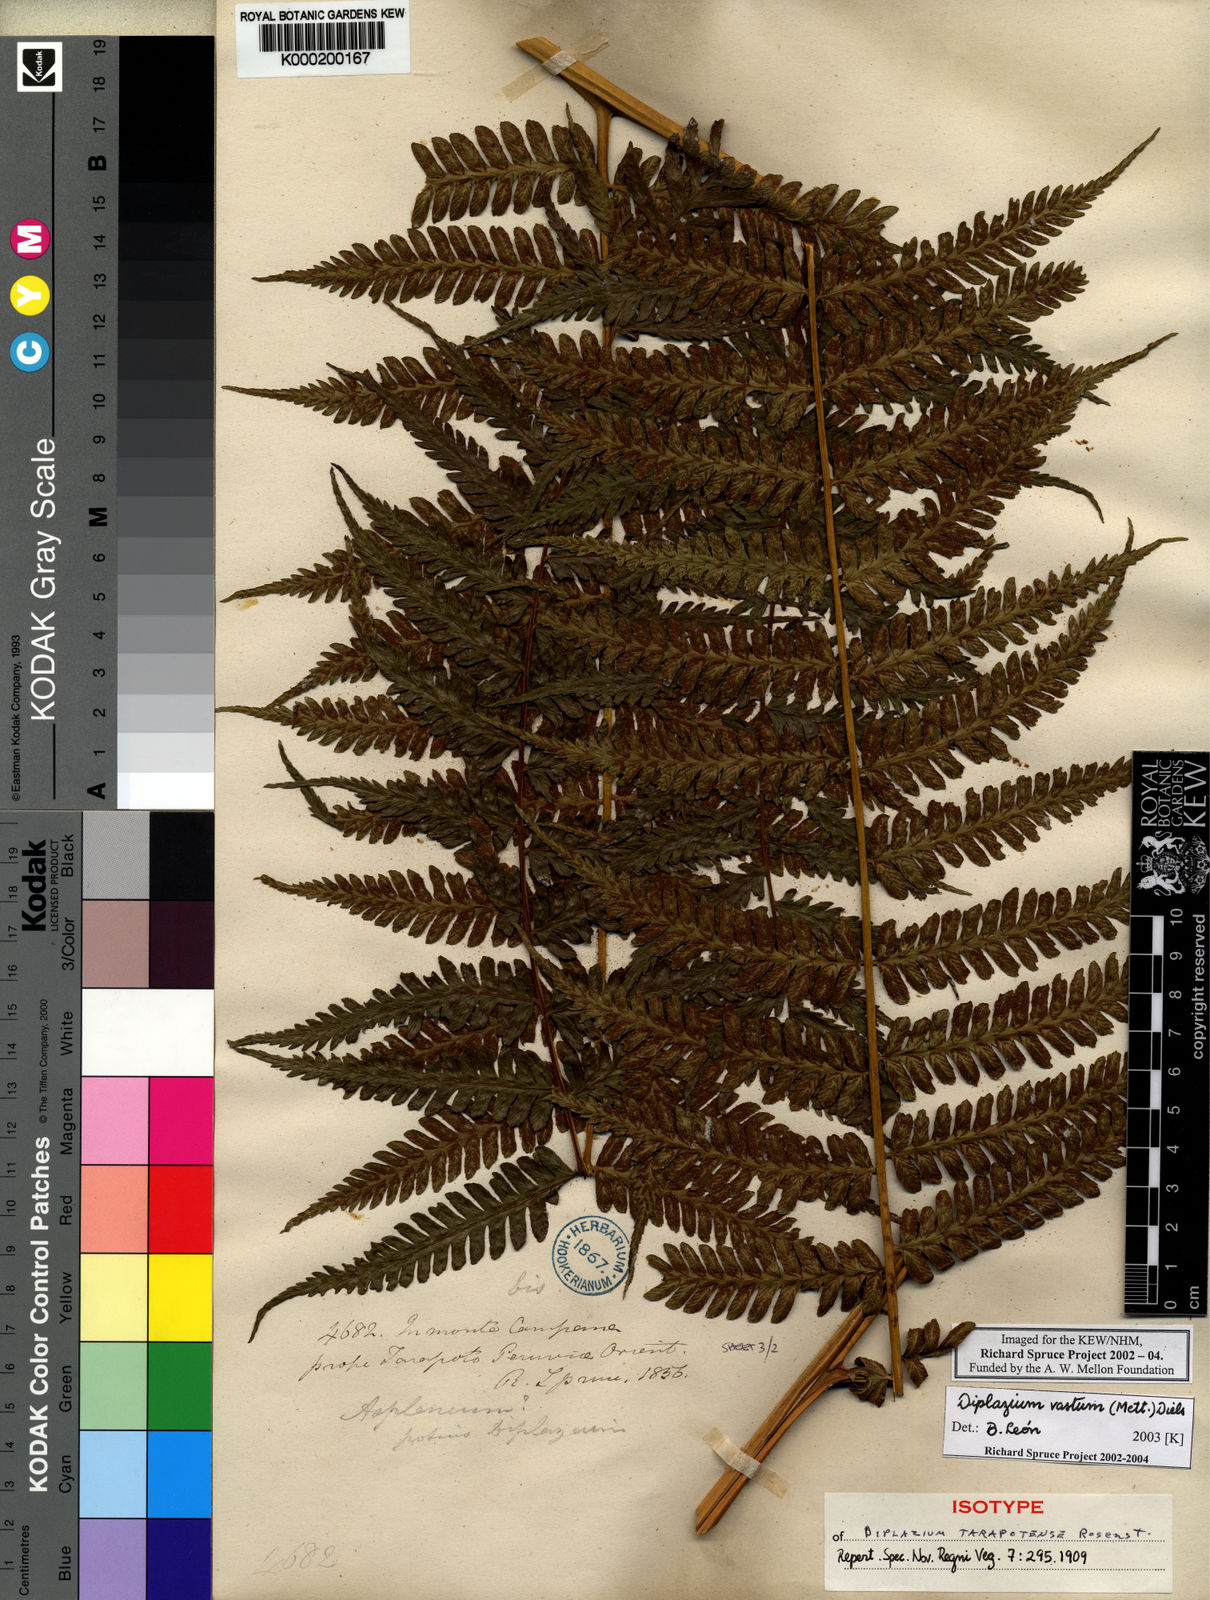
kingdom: Plantae
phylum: Tracheophyta
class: Polypodiopsida
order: Polypodiales
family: Athyriaceae
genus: Diplazium
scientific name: Diplazium vastum
